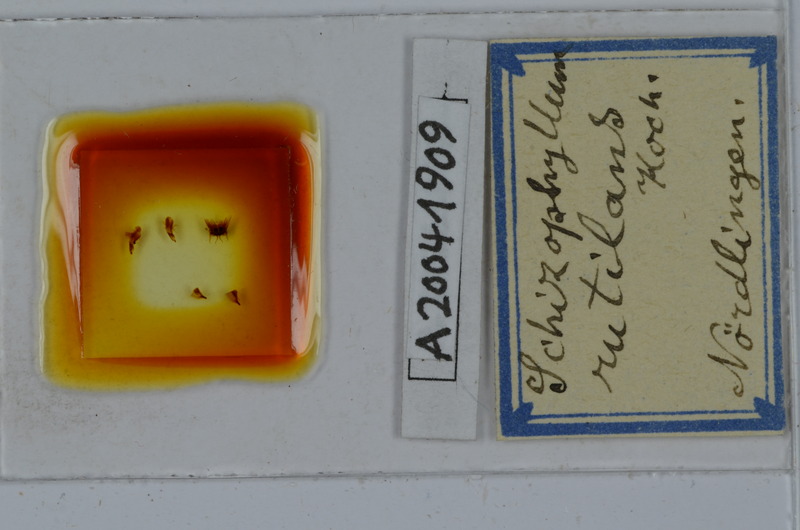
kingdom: Animalia
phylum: Arthropoda
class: Diplopoda
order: Julida
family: Julidae
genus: Ommatoiulus
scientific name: Ommatoiulus rutilans
